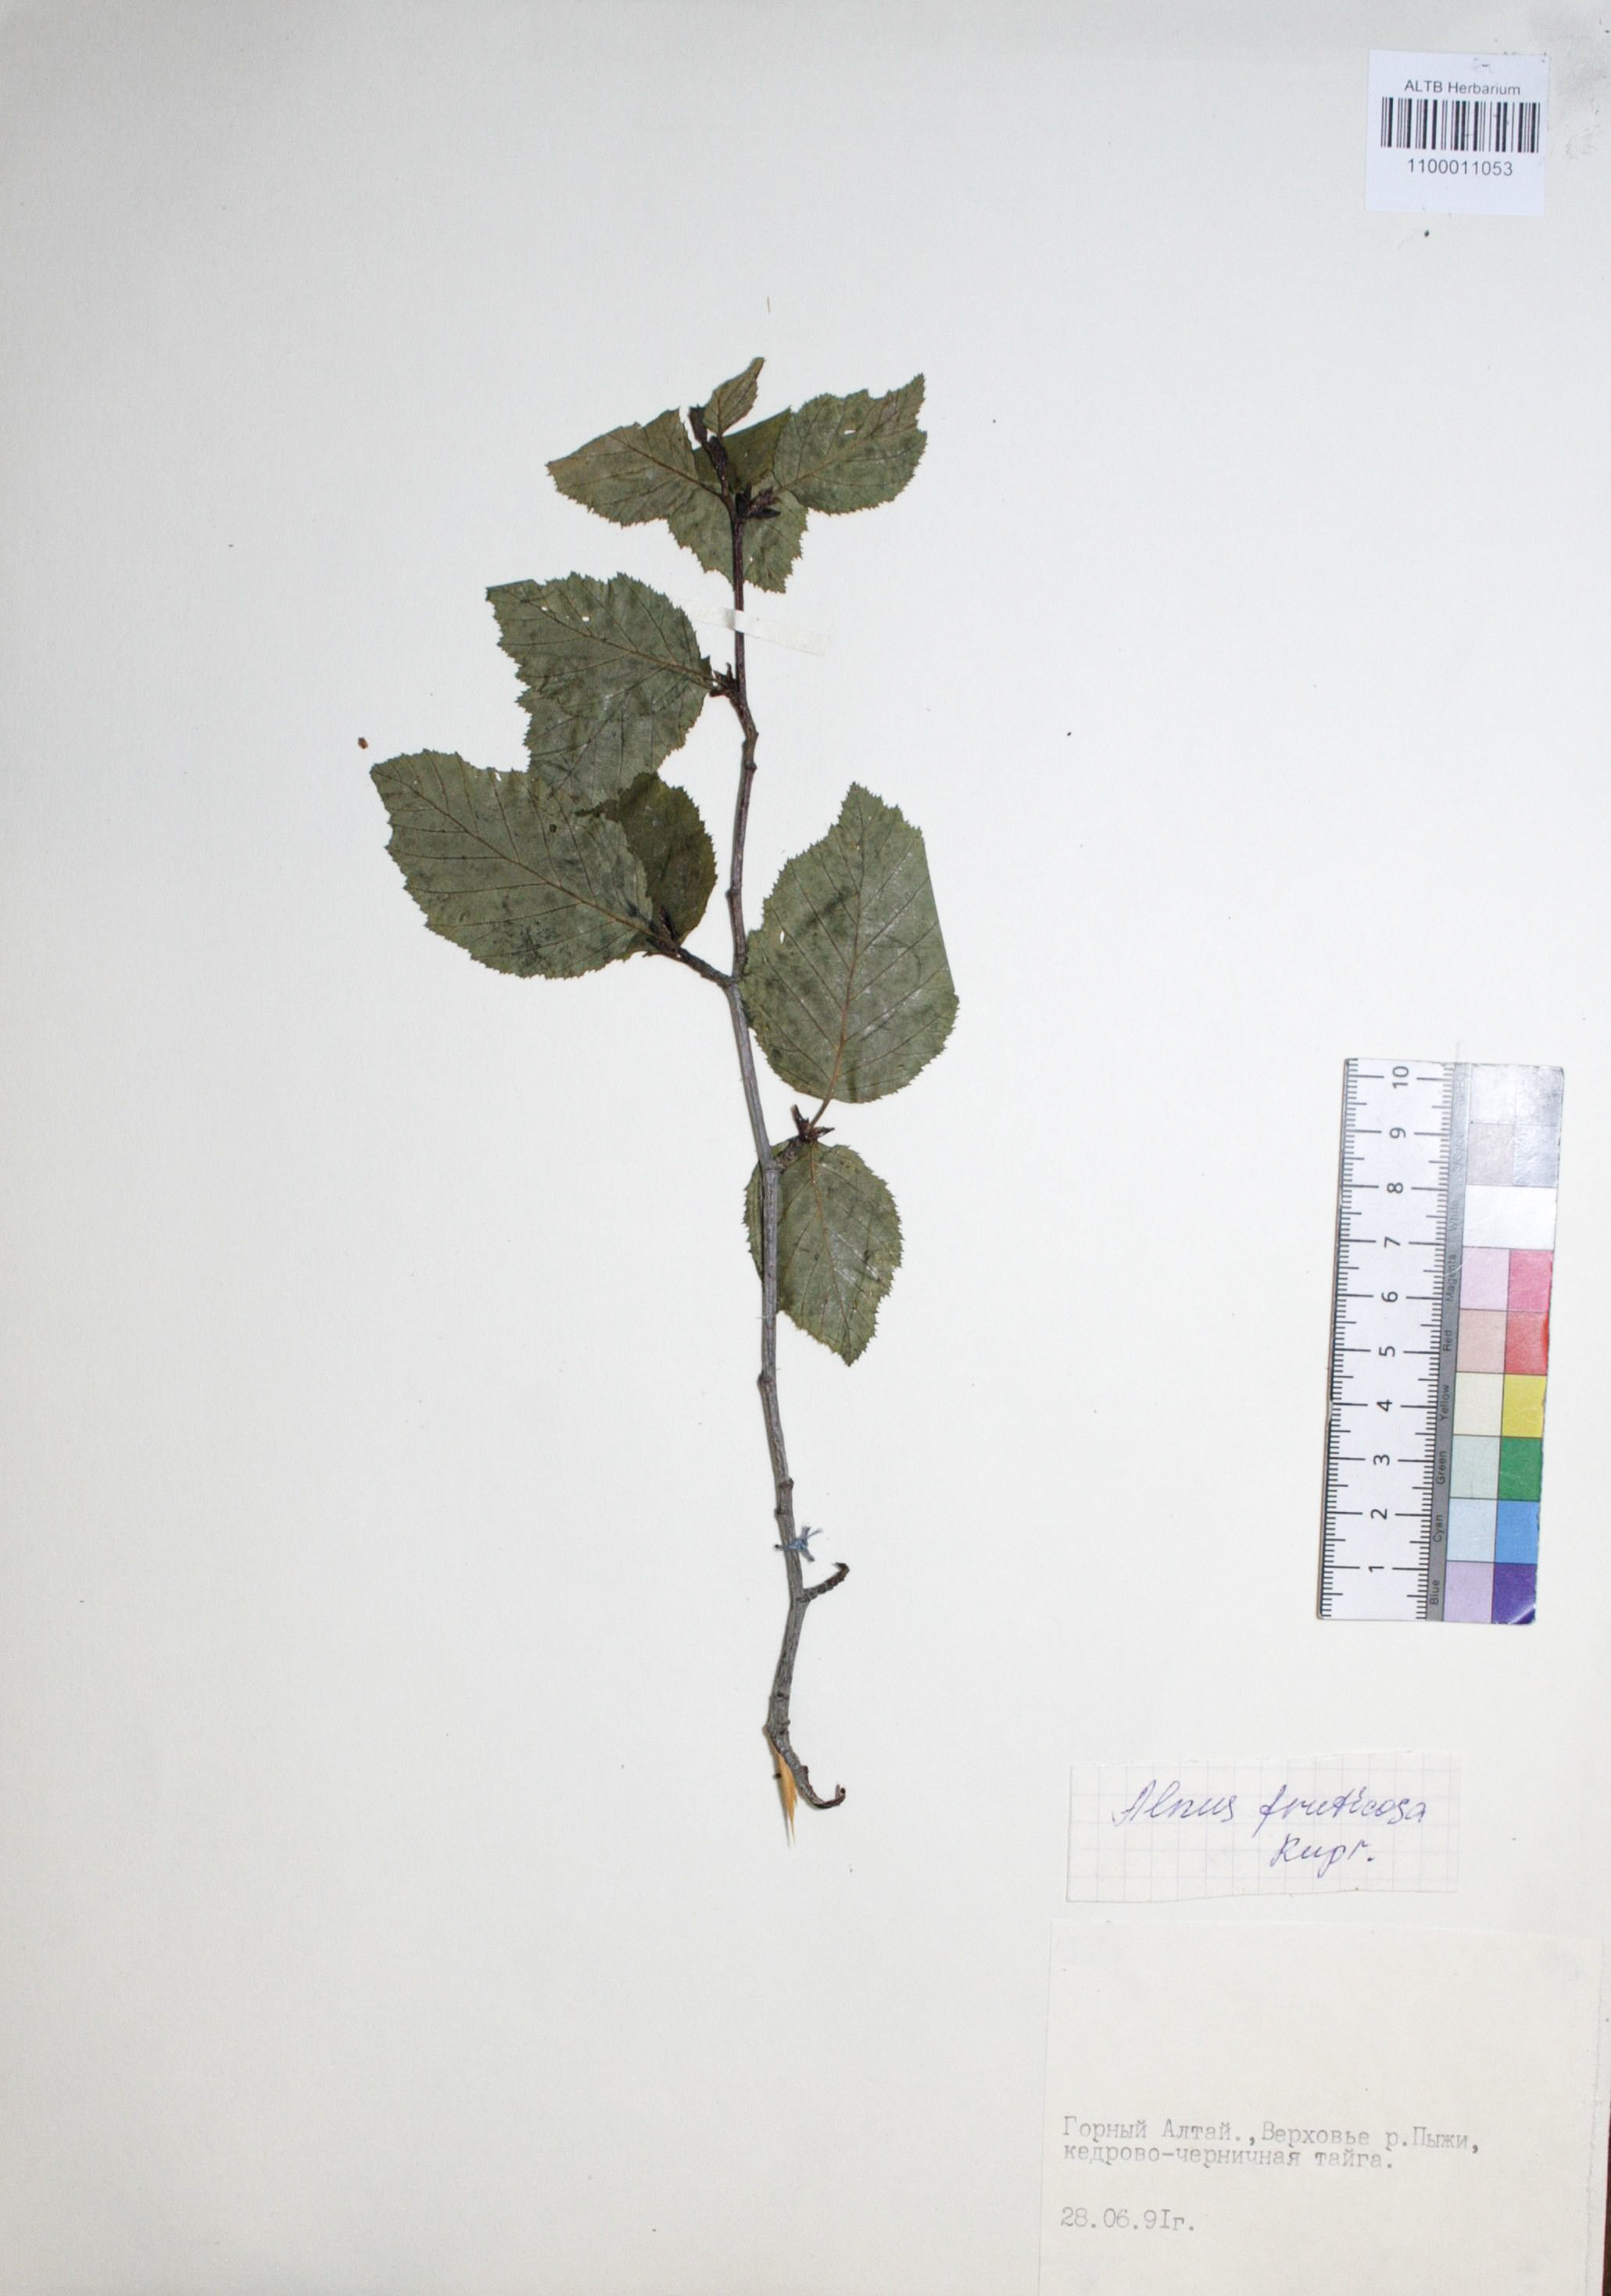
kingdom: Plantae
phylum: Tracheophyta
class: Magnoliopsida
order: Fagales
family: Betulaceae
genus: Alnus
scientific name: Alnus alnobetula
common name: Green alder
